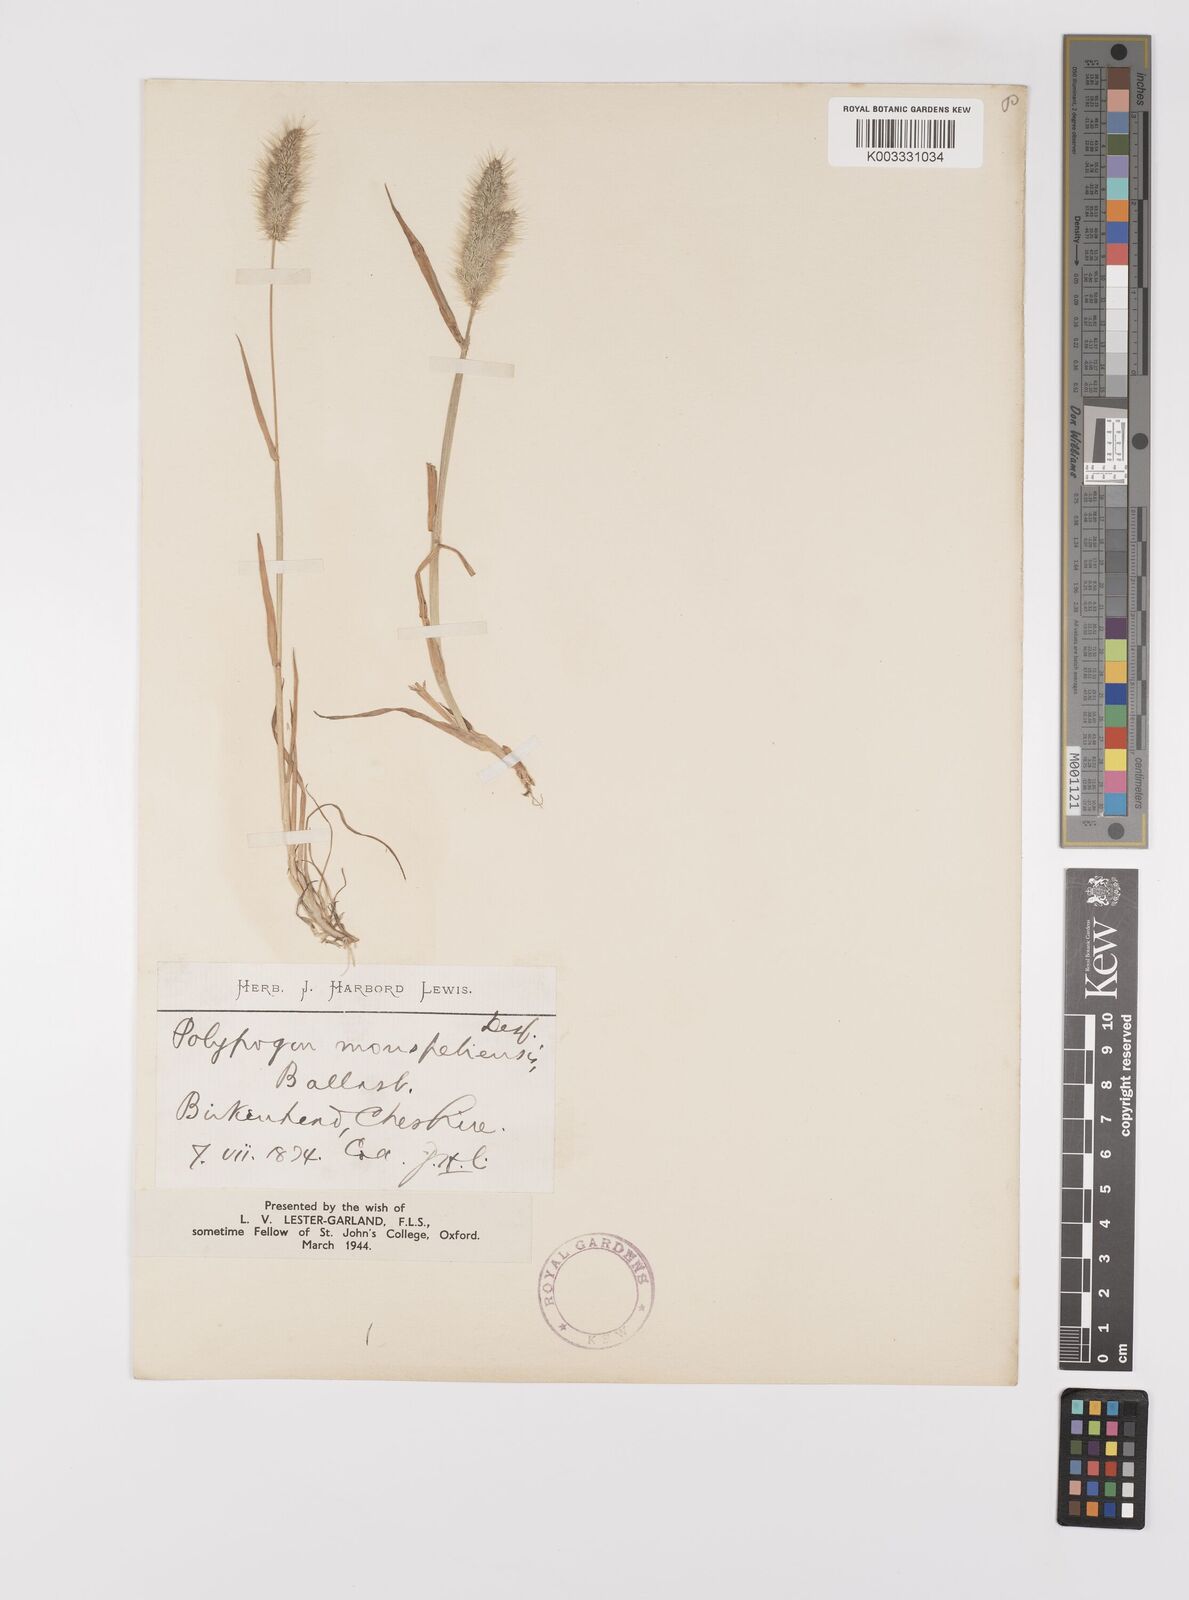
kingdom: Plantae
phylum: Tracheophyta
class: Liliopsida
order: Poales
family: Poaceae
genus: Polypogon
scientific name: Polypogon monspeliensis
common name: Annual rabbitsfoot grass
